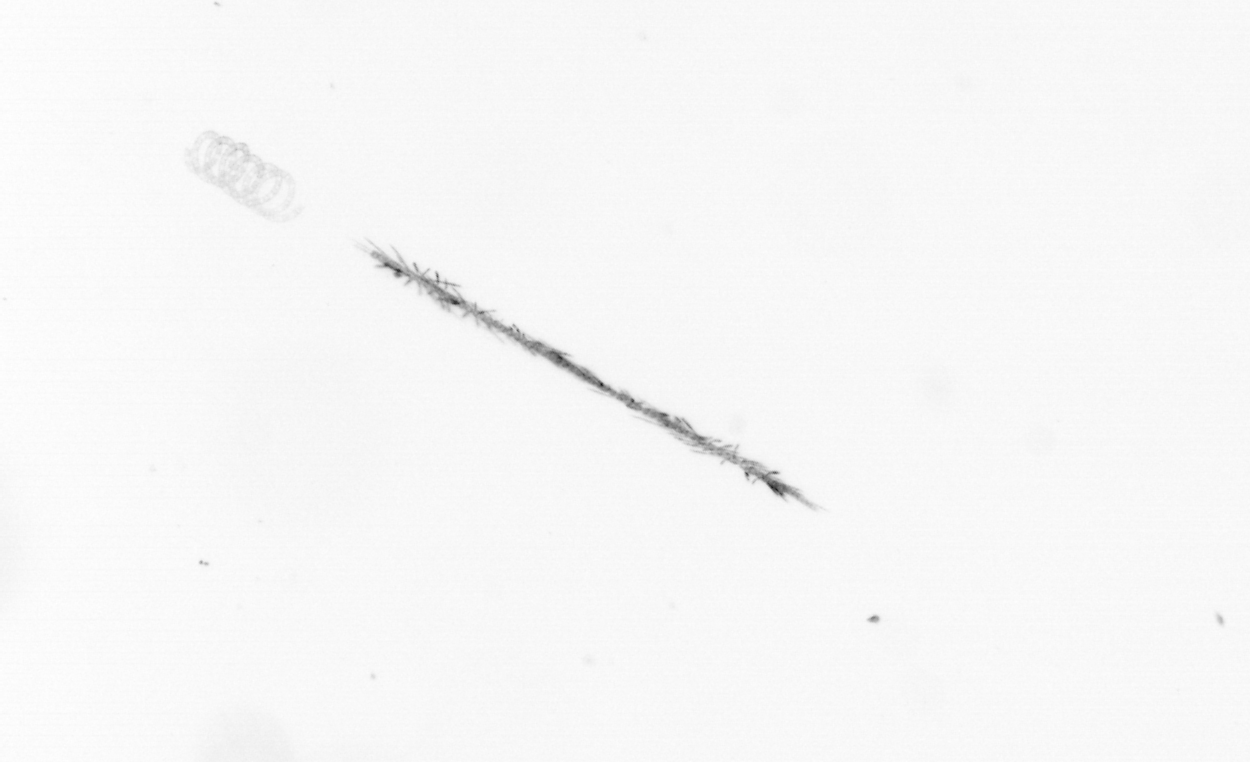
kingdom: Chromista
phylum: Ochrophyta
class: Bacillariophyceae
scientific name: Bacillariophyceae
